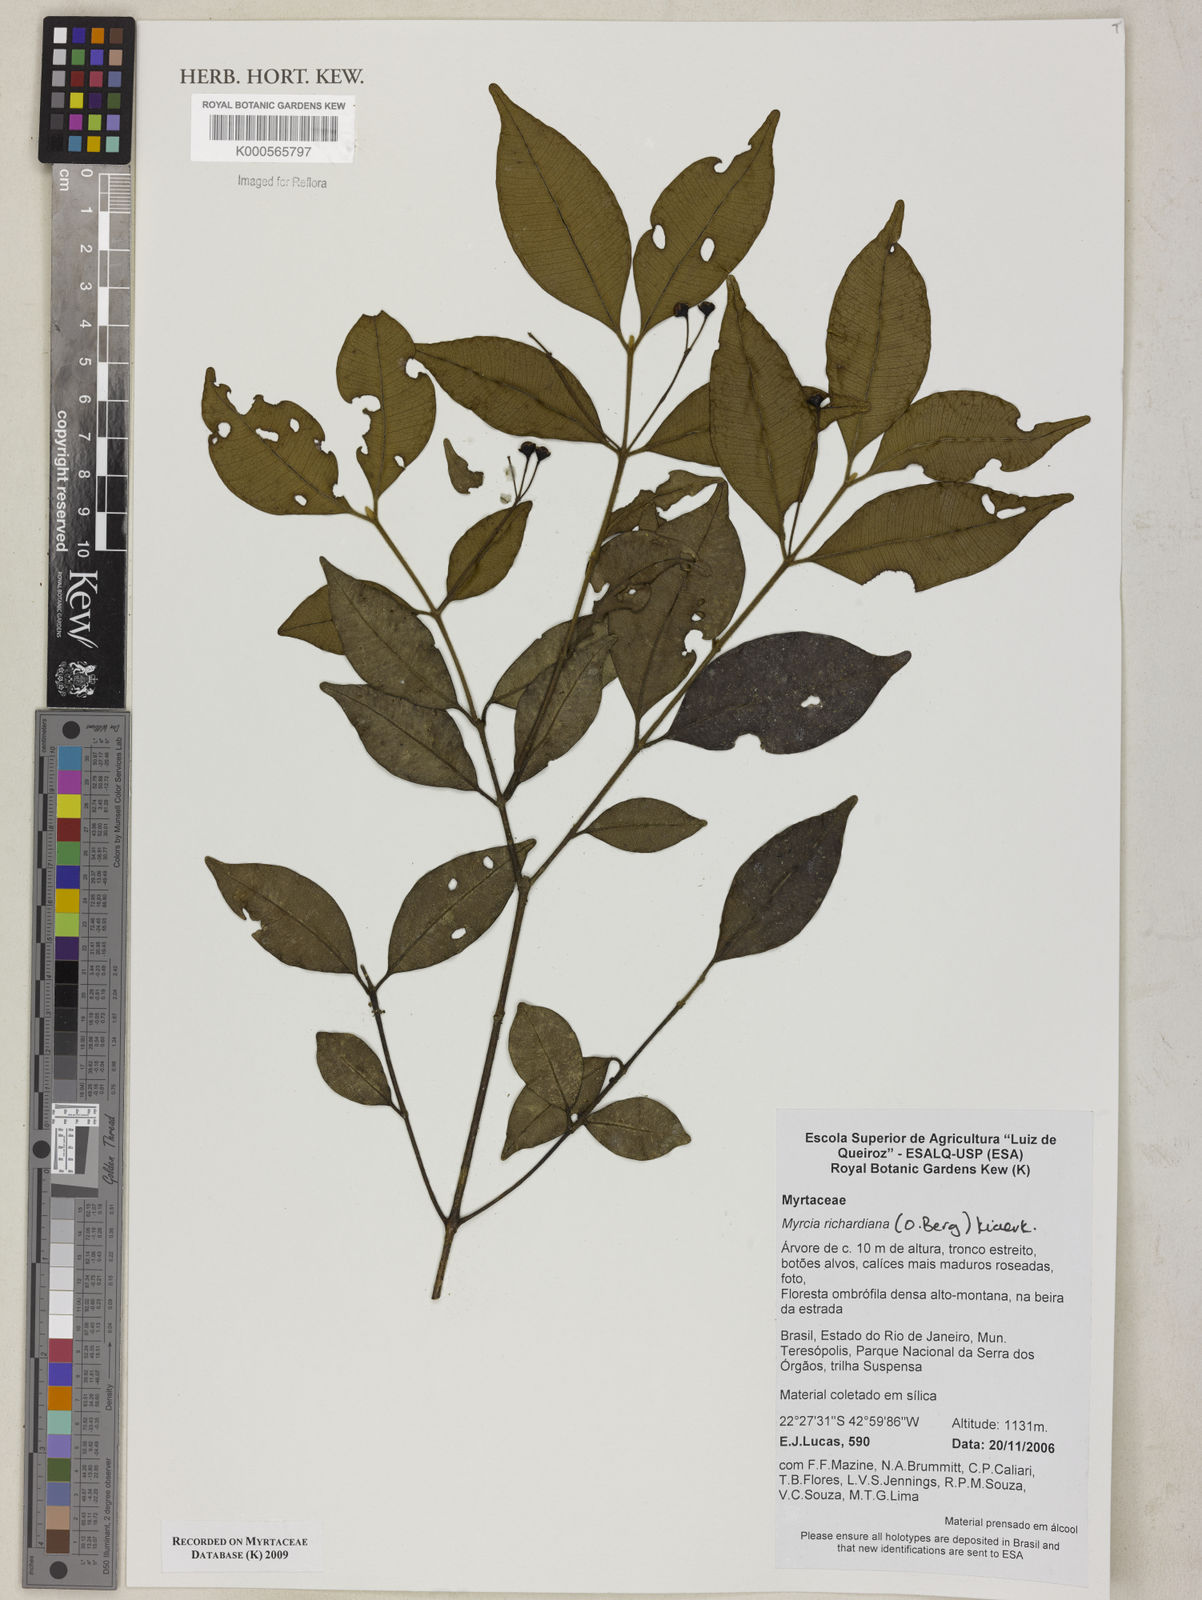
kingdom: Plantae
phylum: Tracheophyta
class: Magnoliopsida
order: Myrtales
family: Myrtaceae
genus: Myrcia
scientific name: Myrcia richardiana
